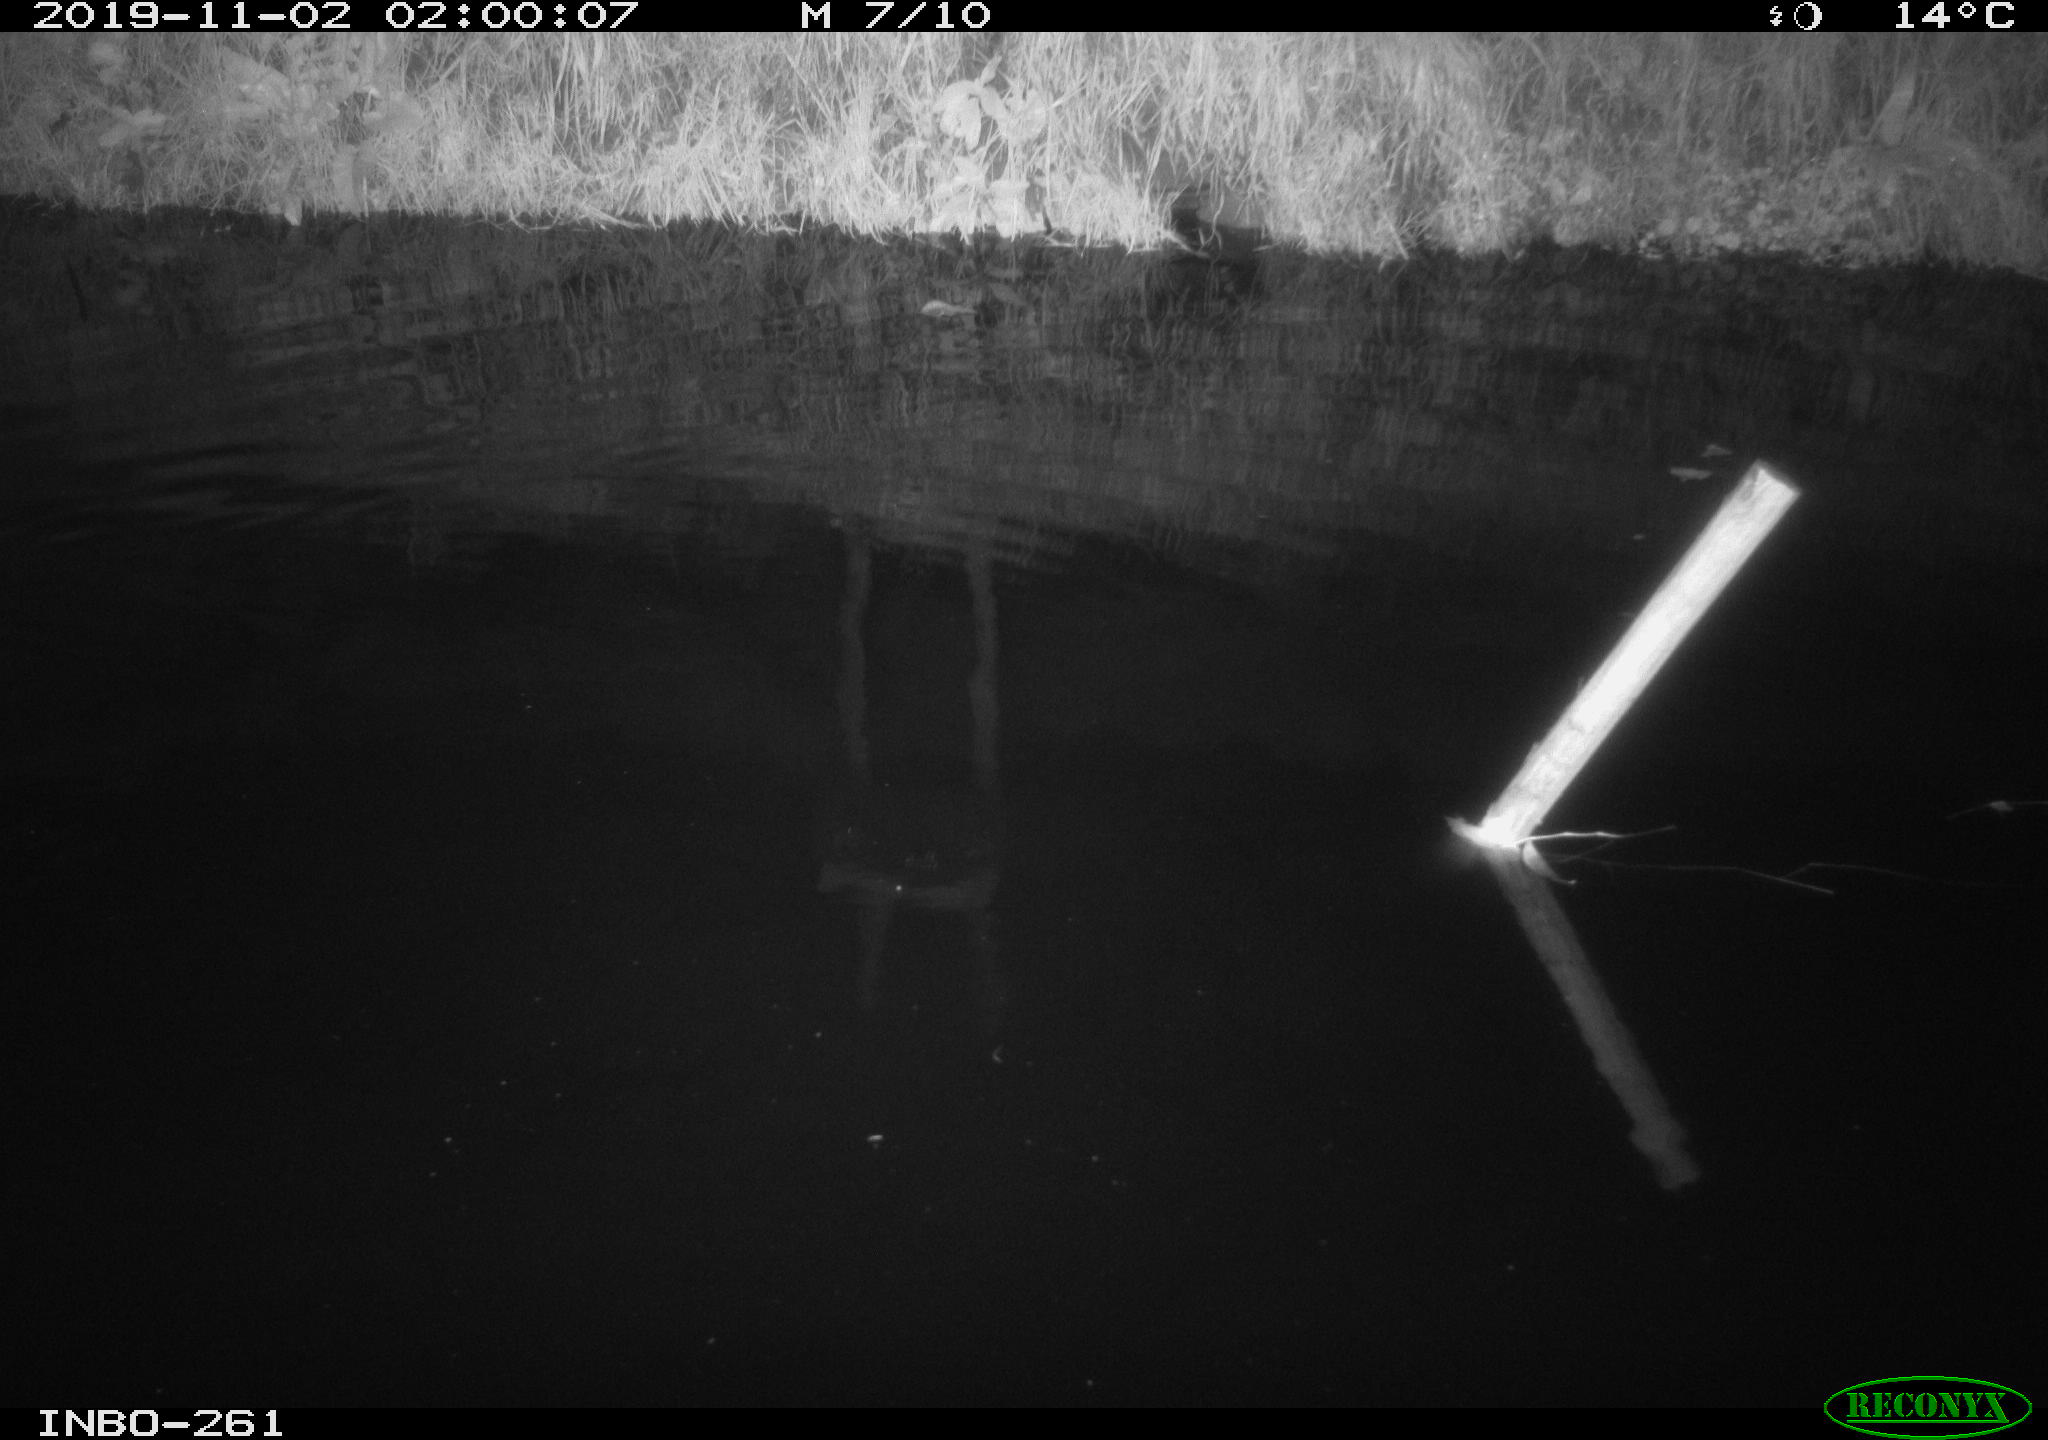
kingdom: Animalia
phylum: Chordata
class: Aves
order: Anseriformes
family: Anatidae
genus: Anas
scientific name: Anas platyrhynchos
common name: Mallard
